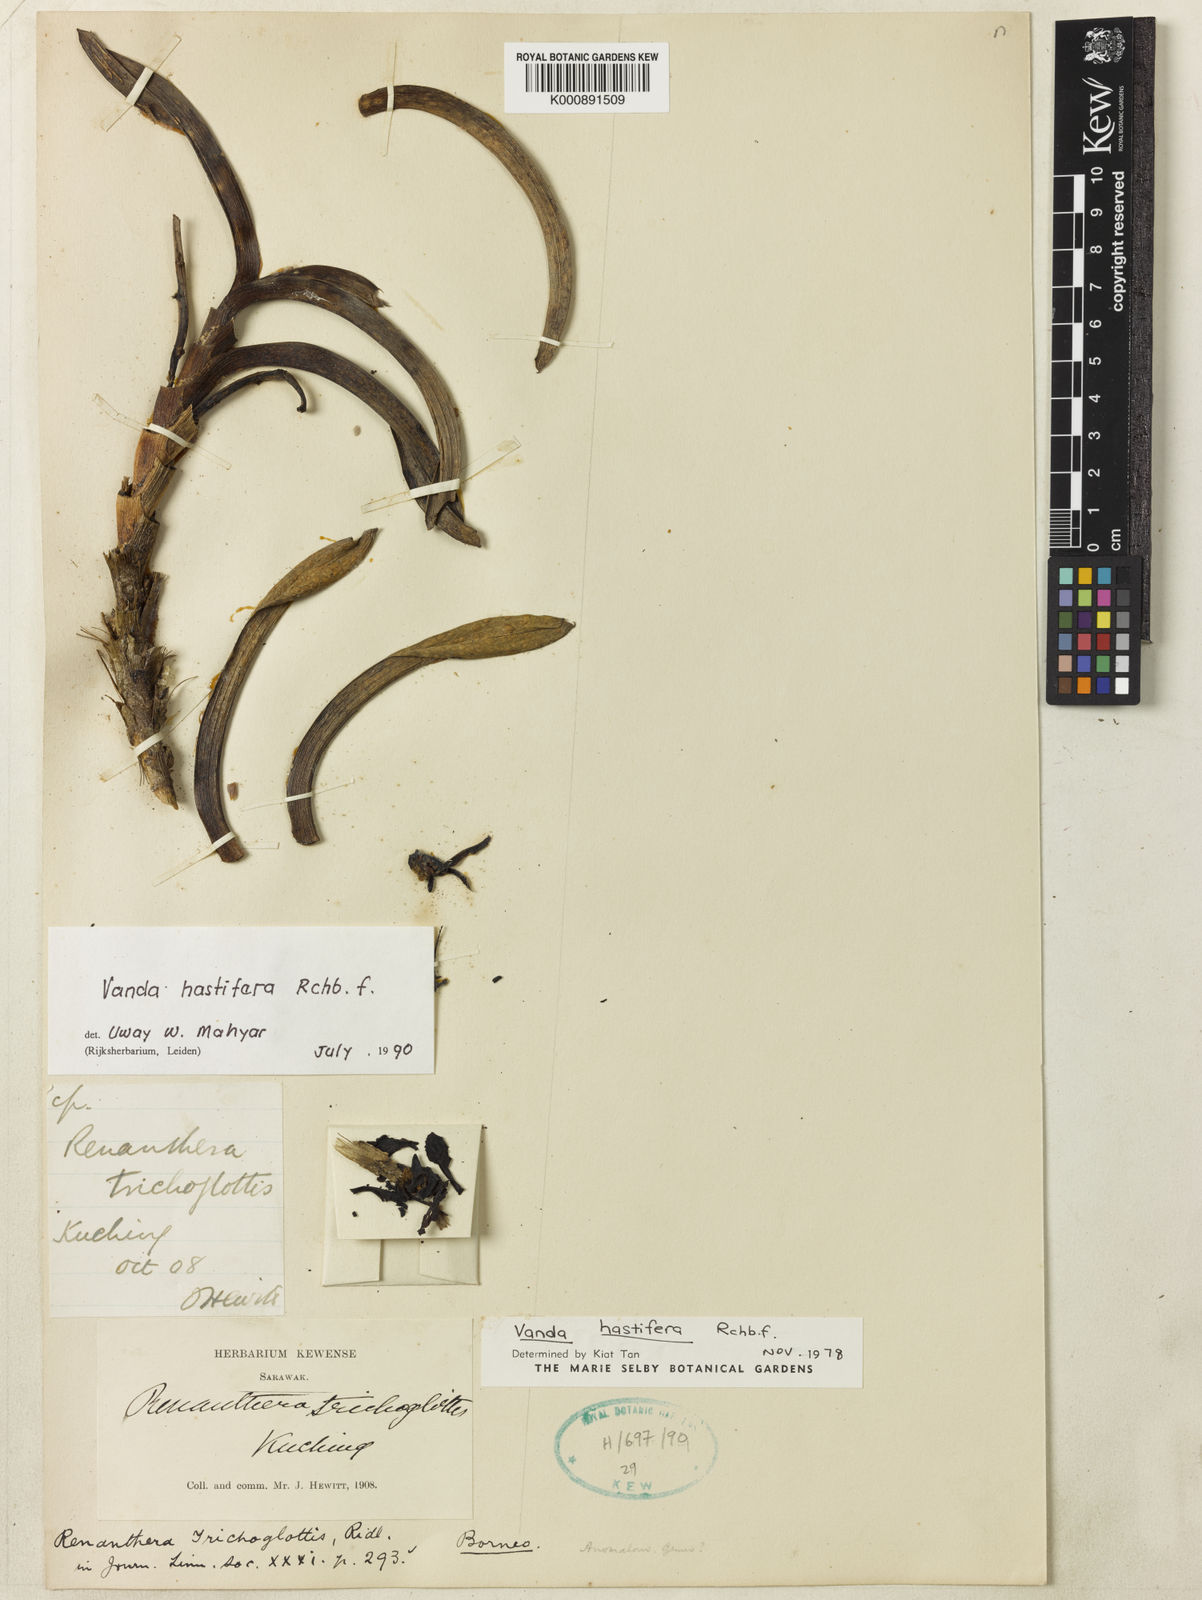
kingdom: Plantae
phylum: Tracheophyta
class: Liliopsida
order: Asparagales
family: Orchidaceae
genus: Vanda
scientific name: Vanda hastifera
